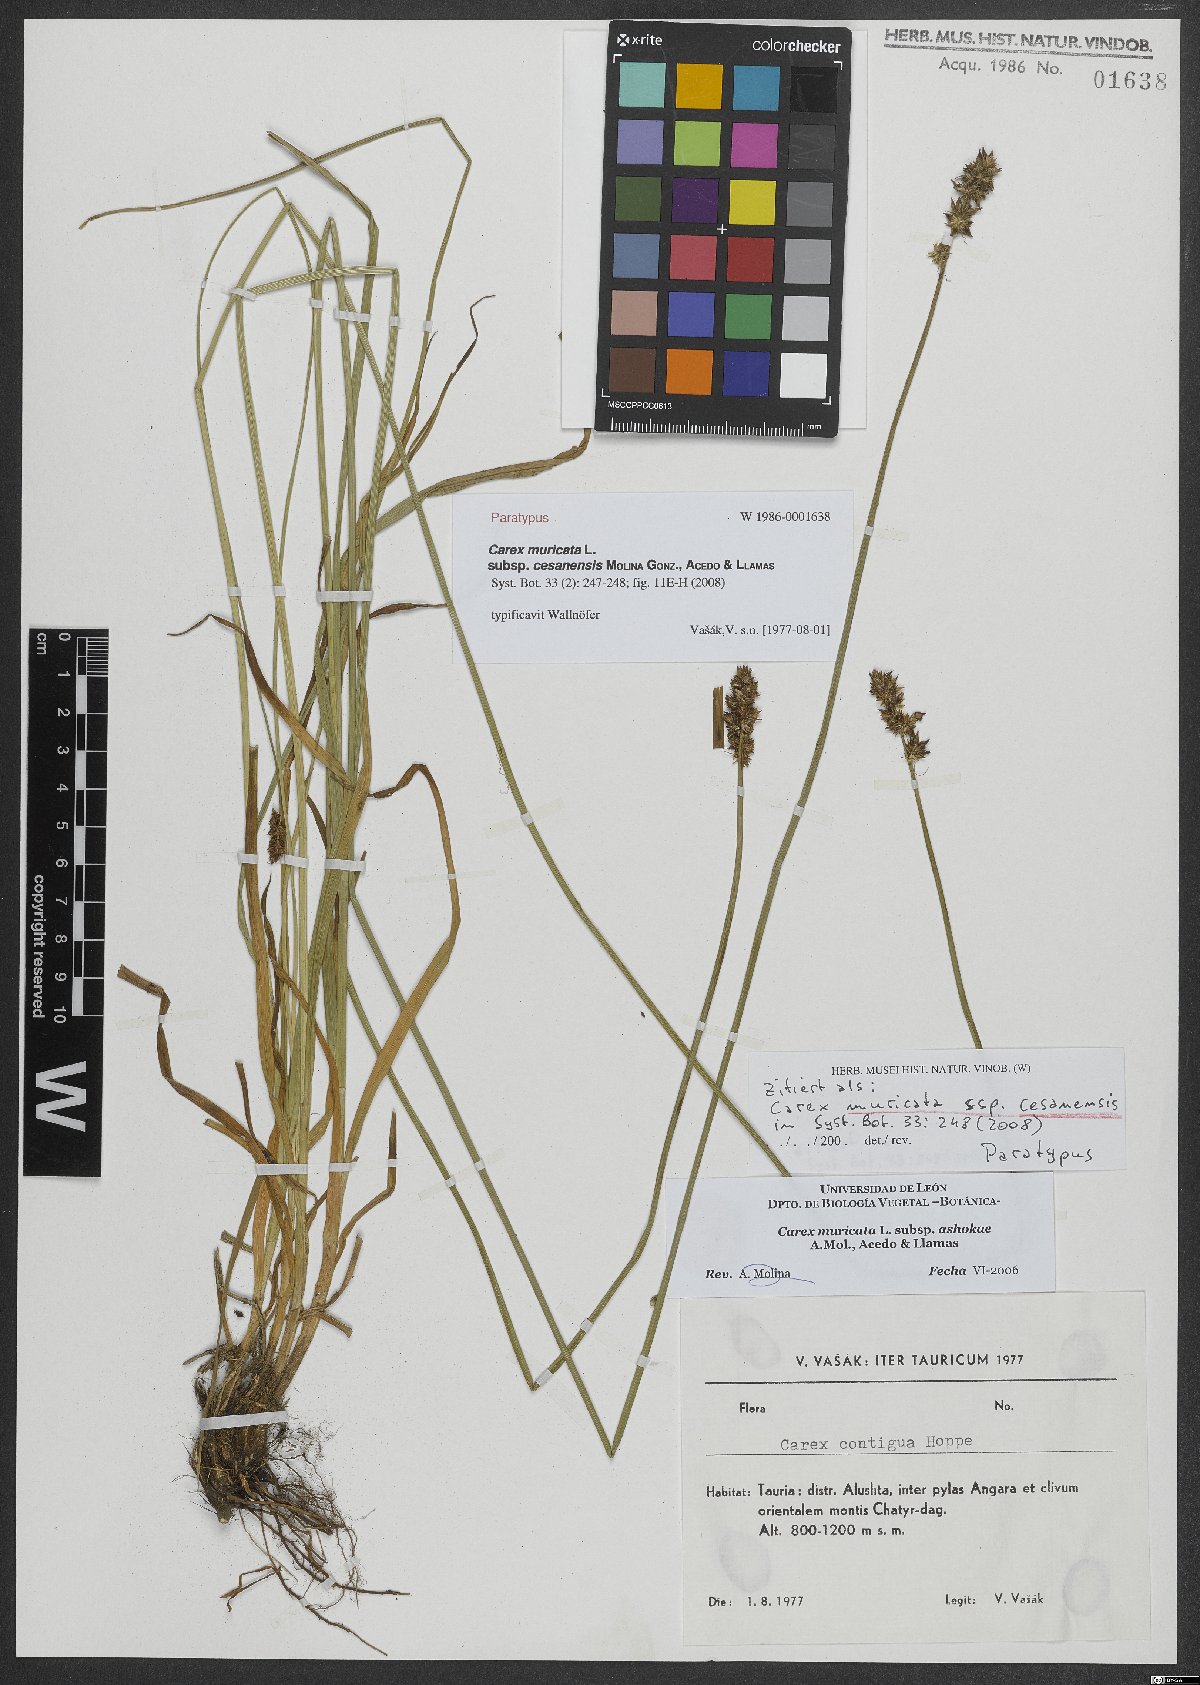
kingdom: Plantae
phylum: Tracheophyta
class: Liliopsida
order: Poales
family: Cyperaceae
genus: Carex
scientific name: Carex muricata
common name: Rough sedge
